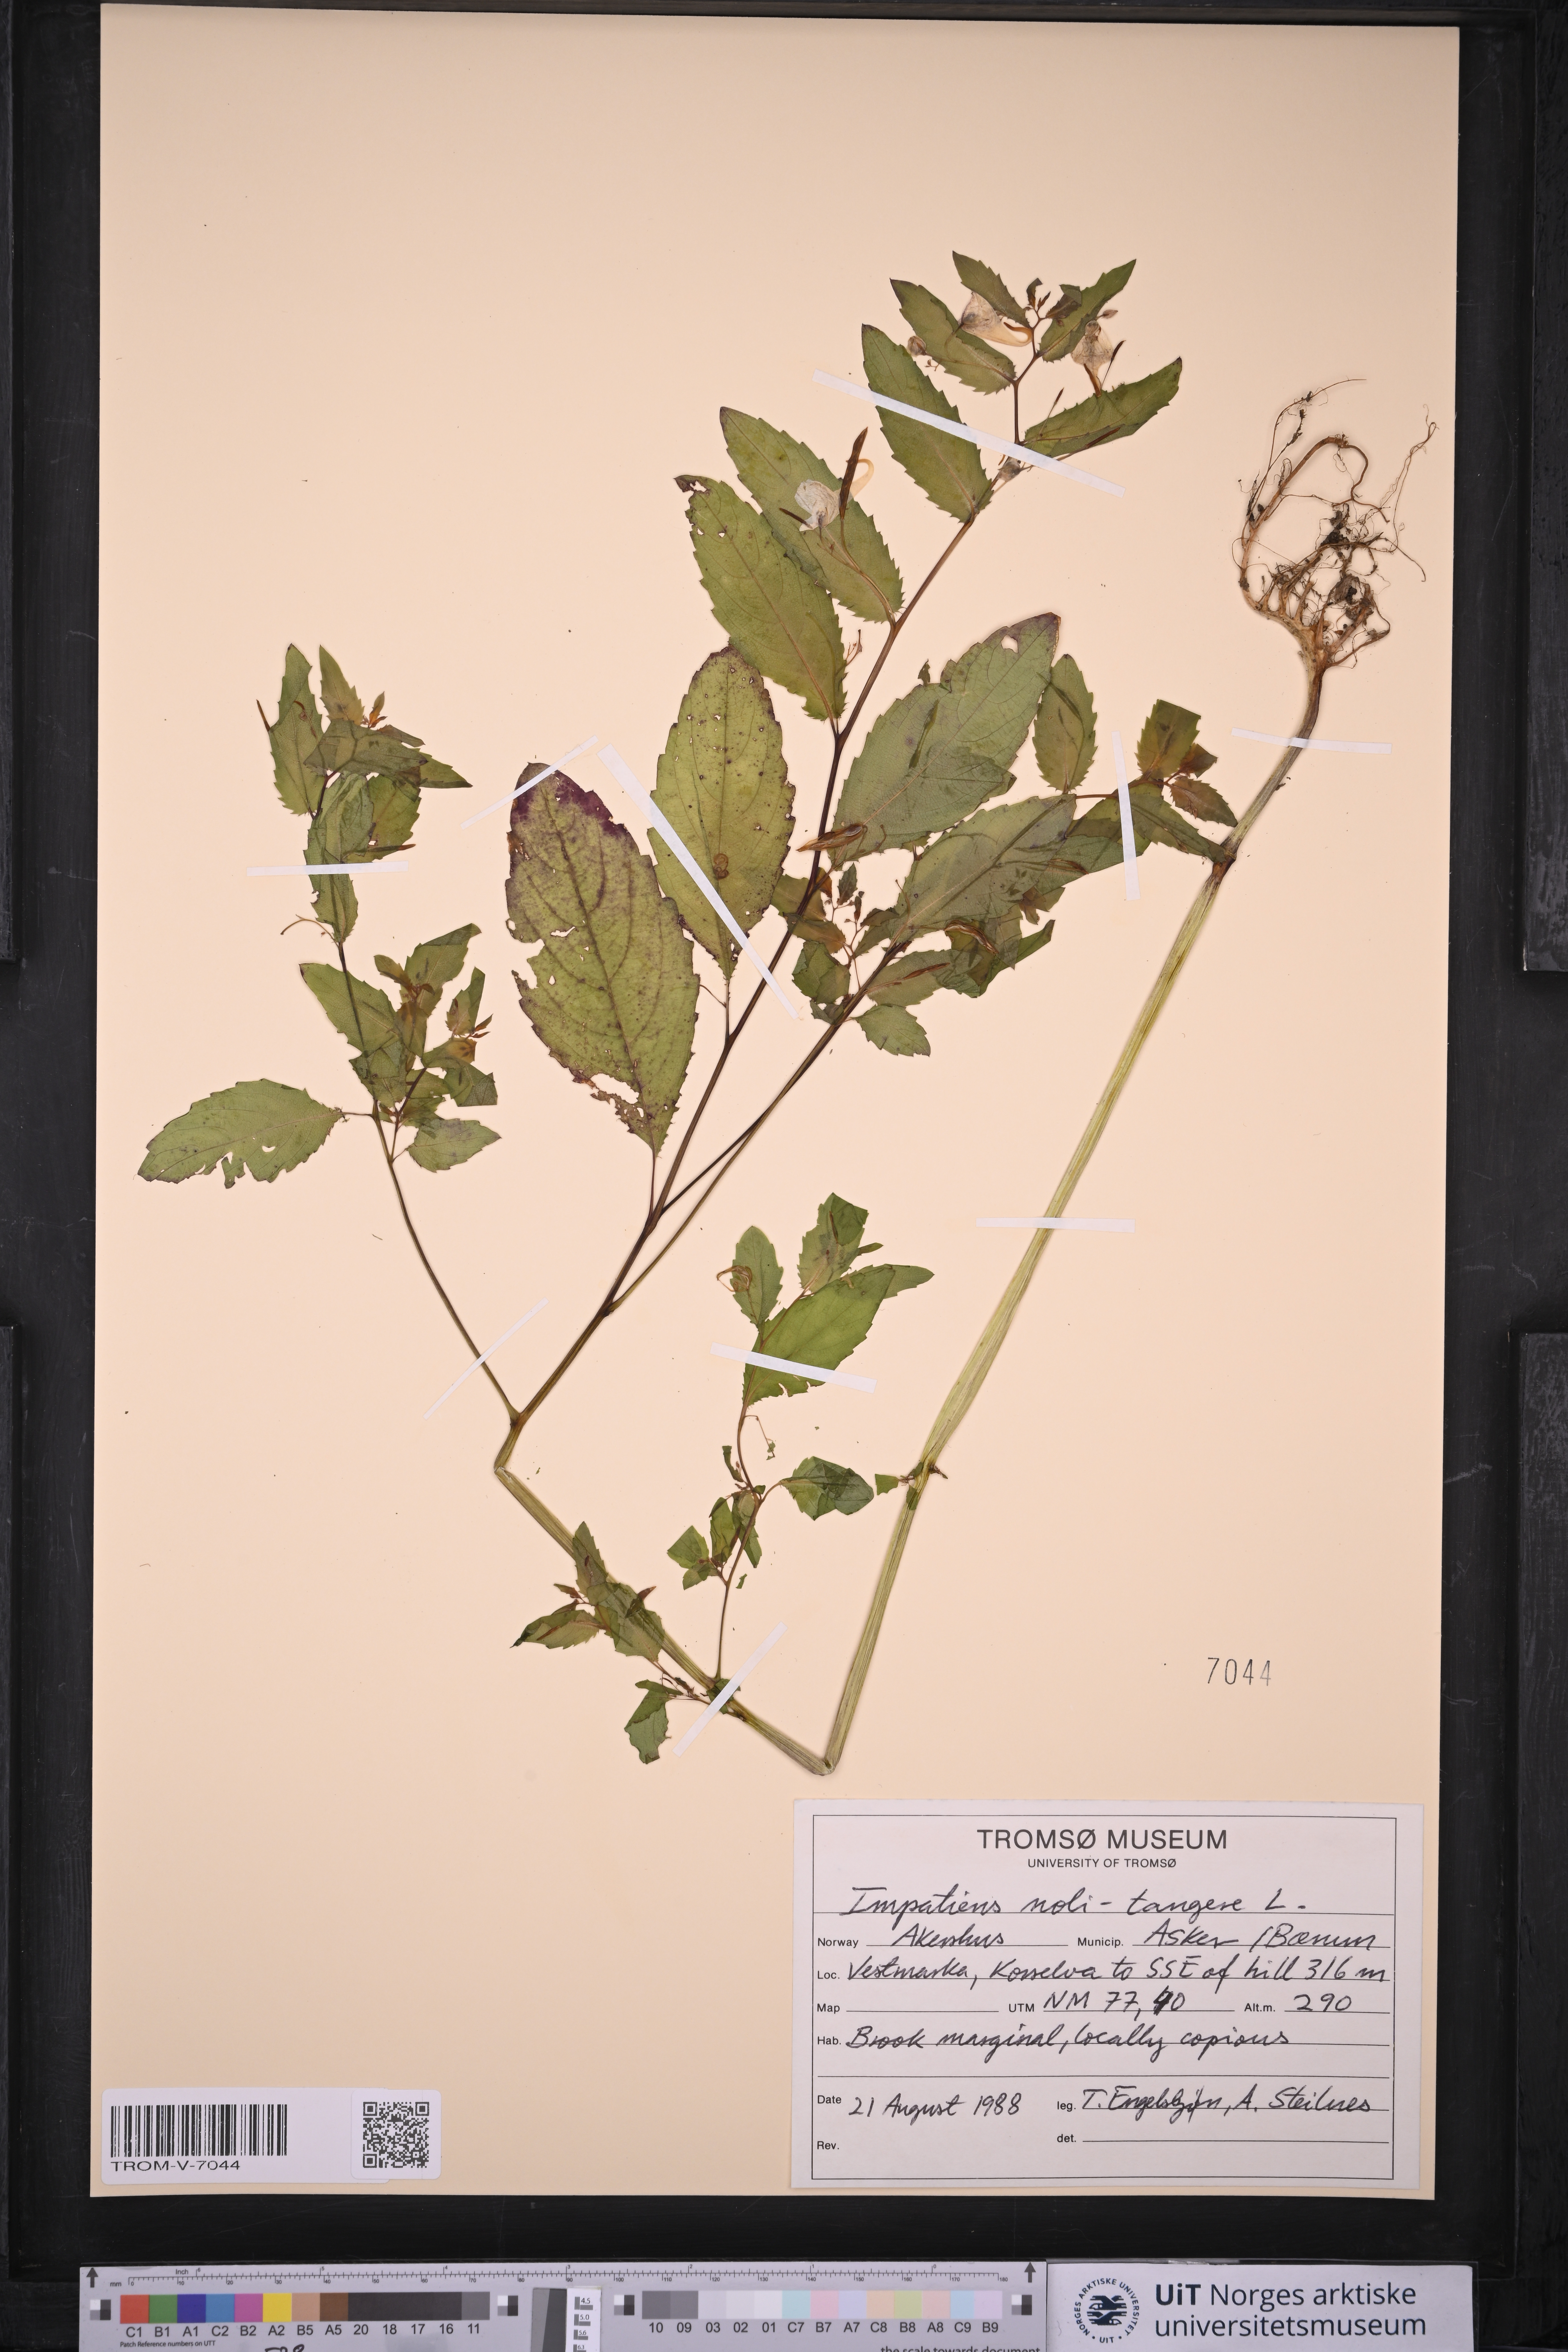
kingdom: Plantae
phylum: Tracheophyta
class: Magnoliopsida
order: Ericales
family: Balsaminaceae
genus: Impatiens
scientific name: Impatiens noli-tangere
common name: Touch-me-not balsam
